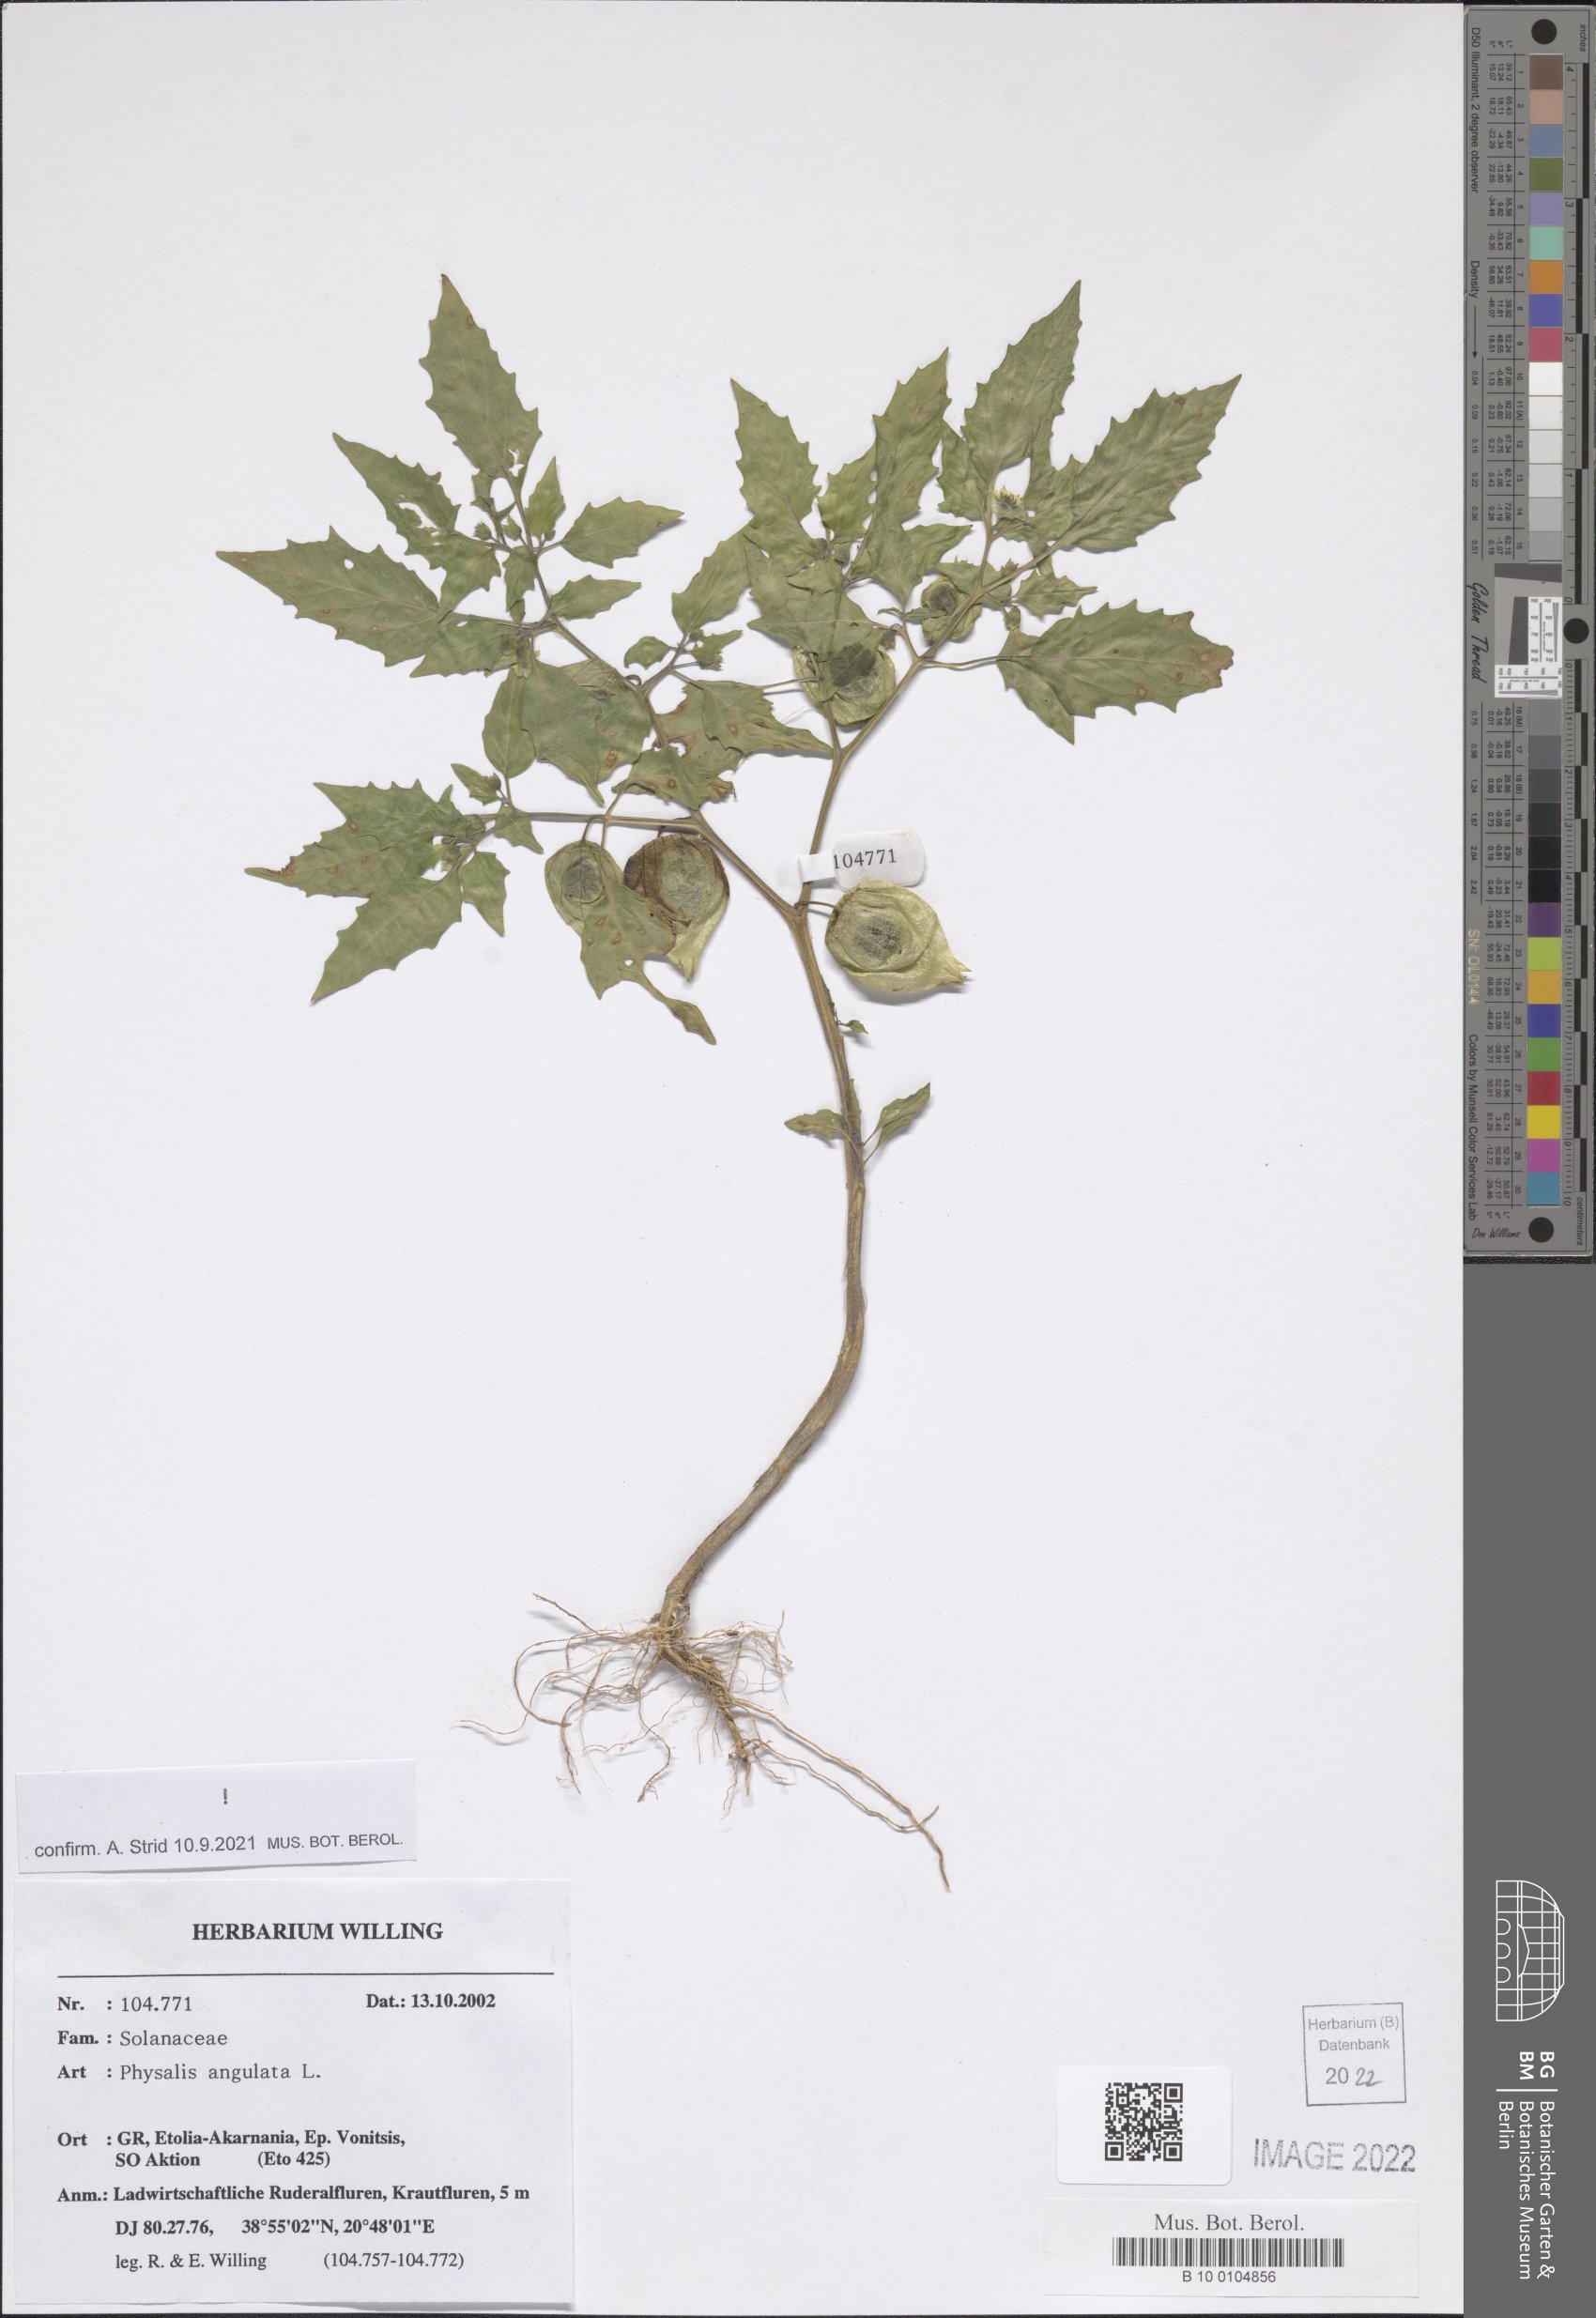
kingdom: Plantae
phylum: Tracheophyta
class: Magnoliopsida
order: Solanales
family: Solanaceae
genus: Physalis
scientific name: Physalis angulata
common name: Angular winter-cherry
